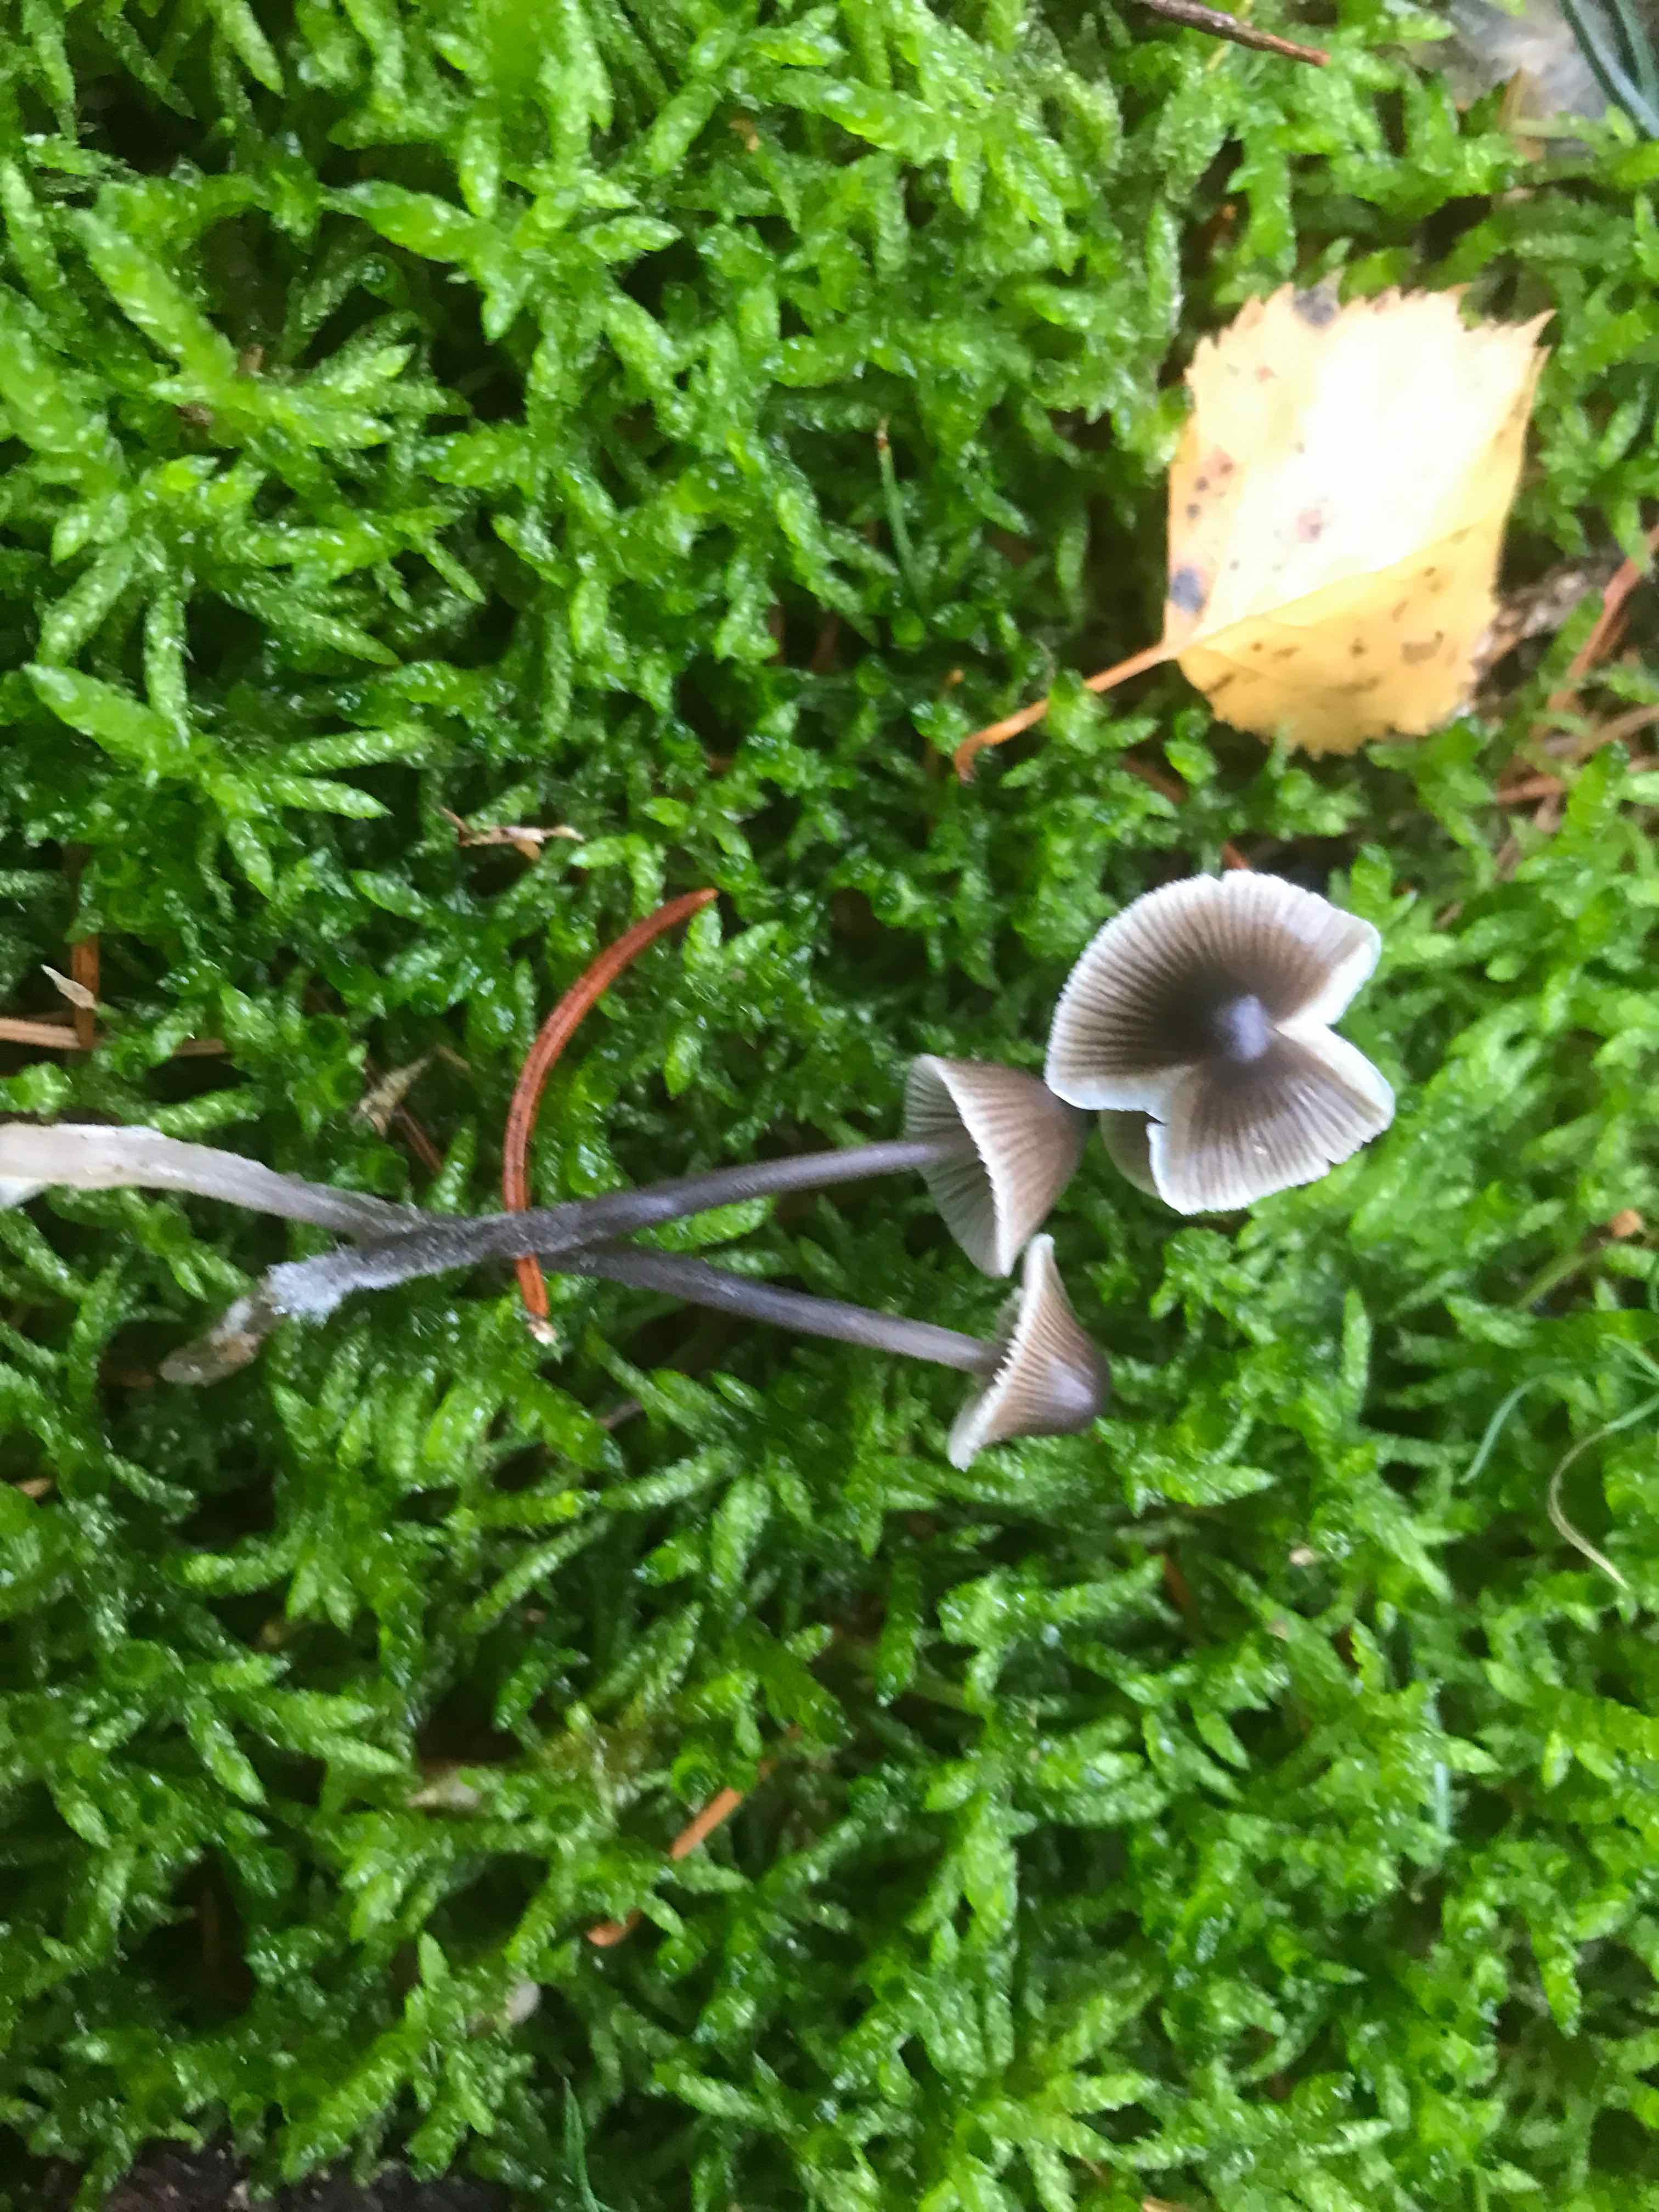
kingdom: Fungi
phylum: Basidiomycota
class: Agaricomycetes
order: Agaricales
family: Mycenaceae
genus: Mycena
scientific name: Mycena leptocephala
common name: klor-huesvamp
